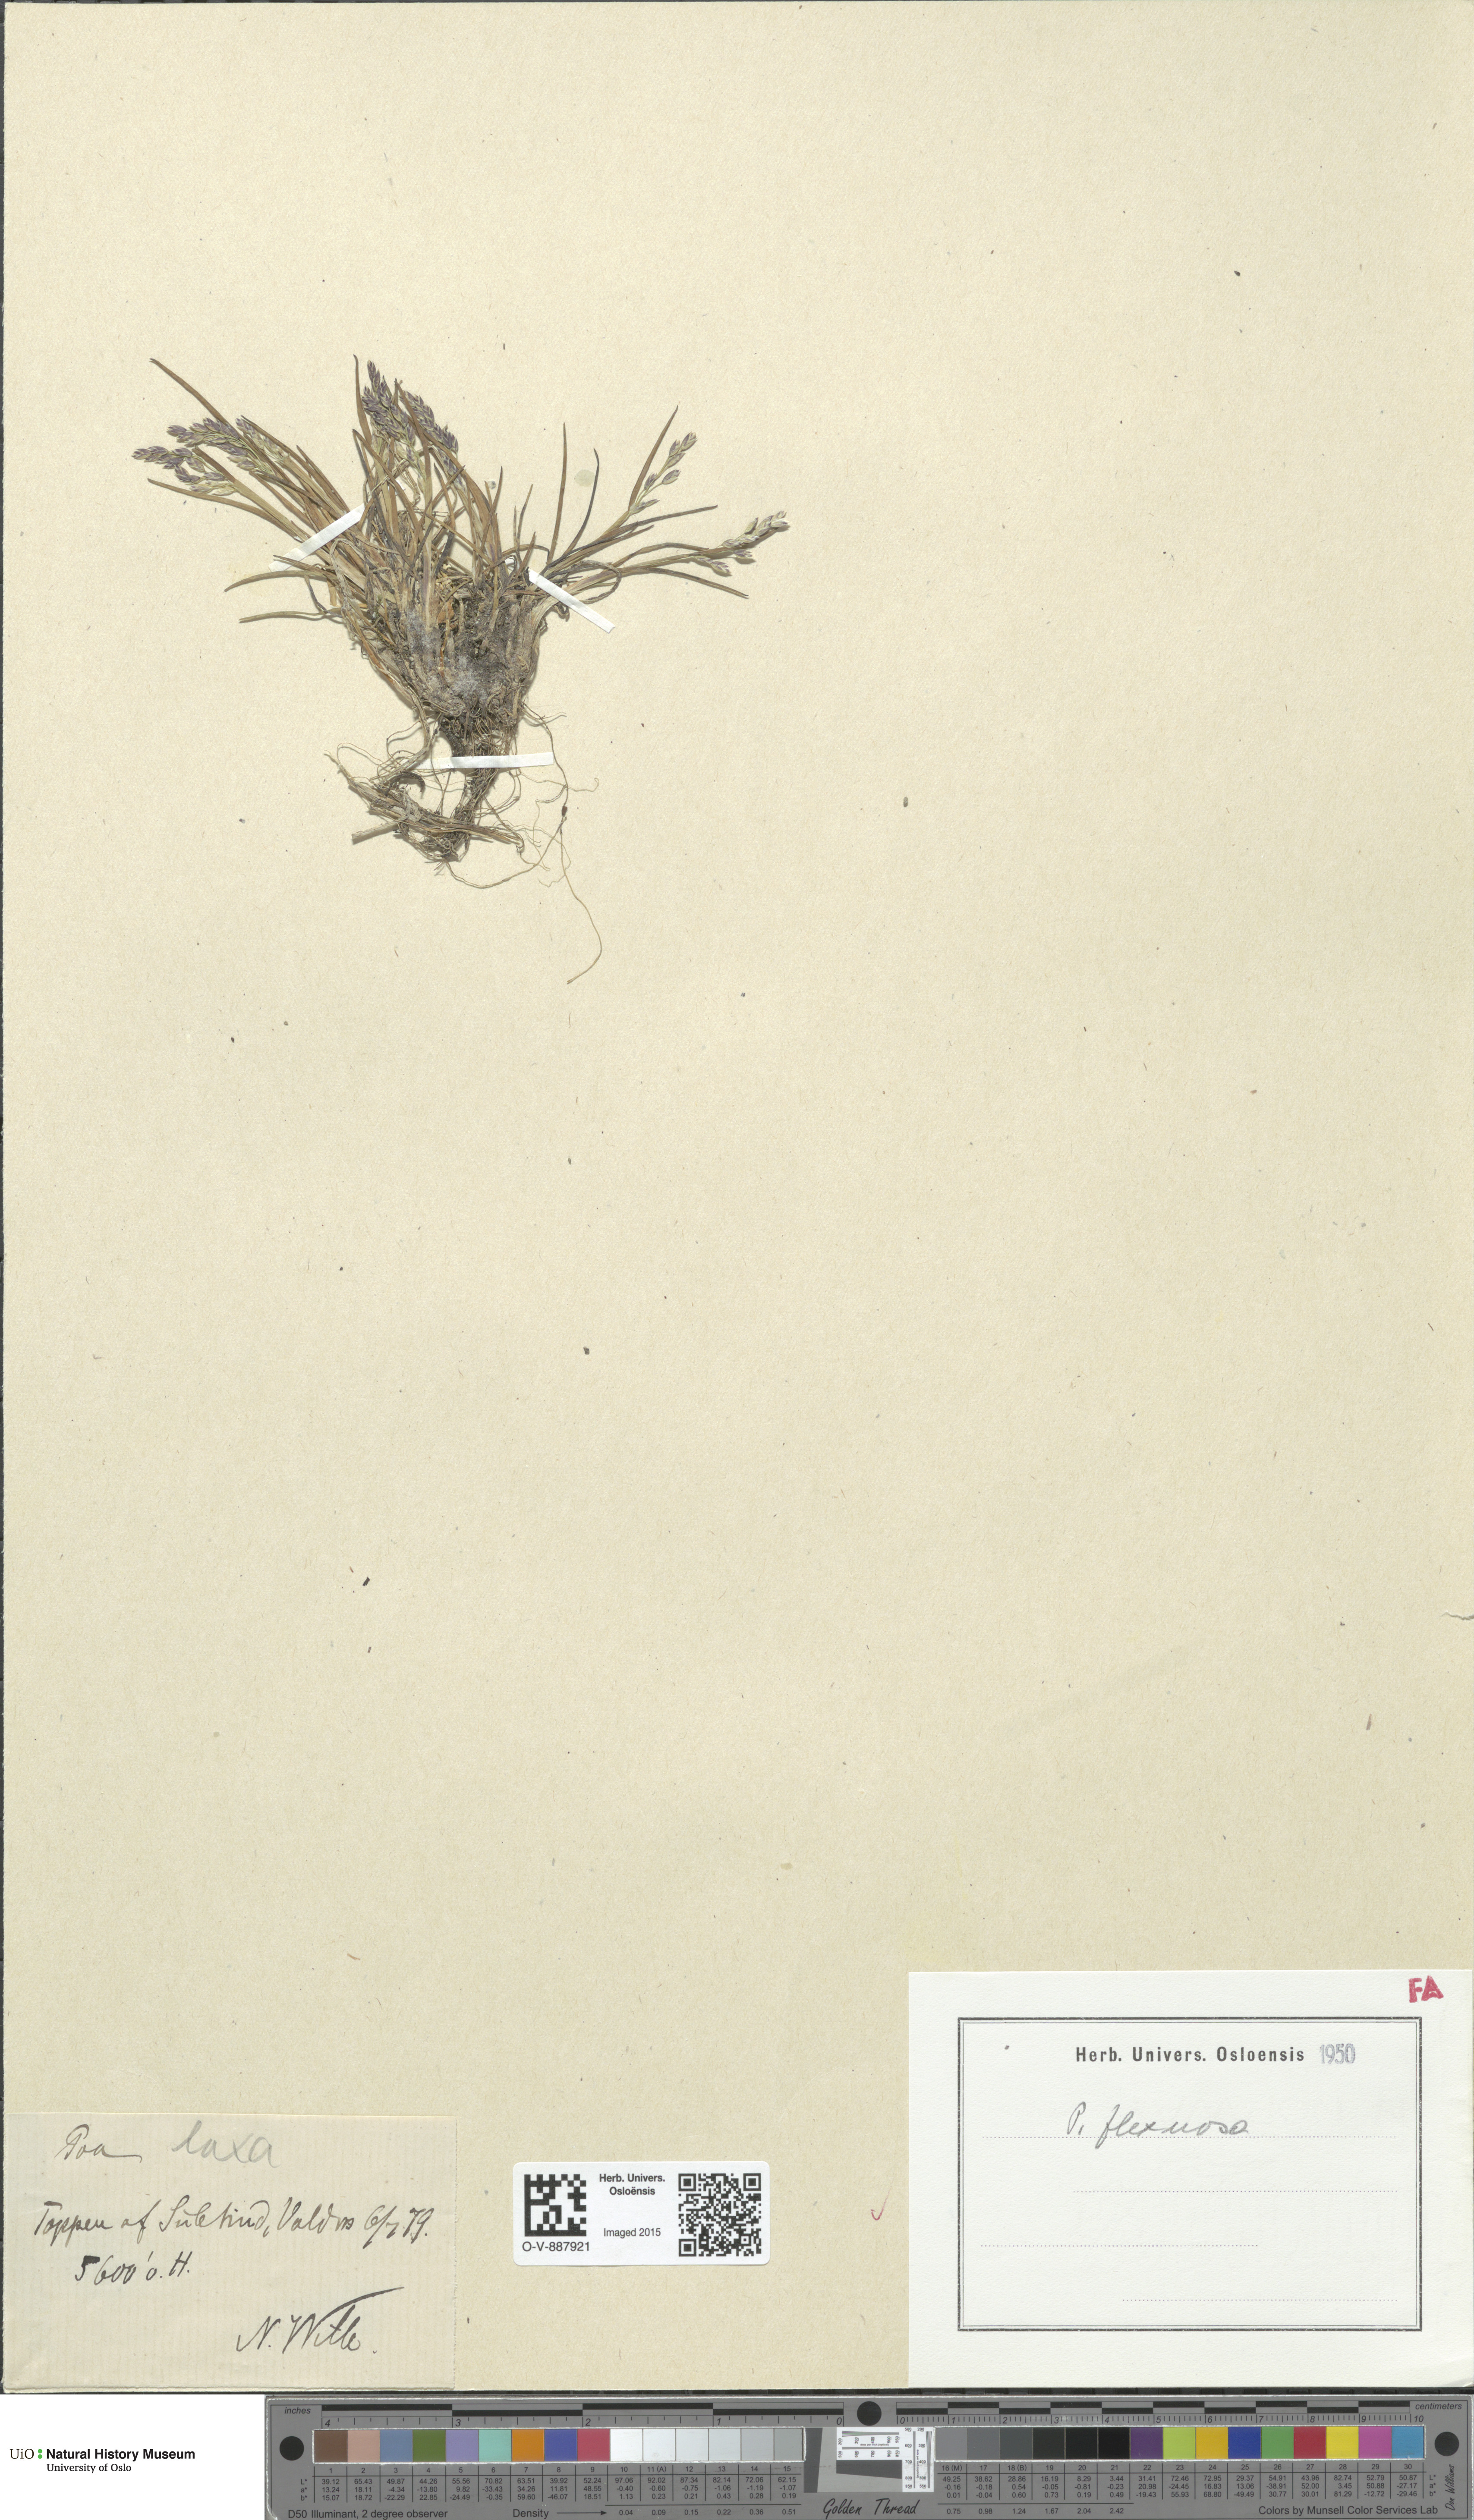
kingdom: Plantae
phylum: Tracheophyta
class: Liliopsida
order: Poales
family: Poaceae
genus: Poa
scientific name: Poa flexuosa
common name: Wavy meadow-grass
